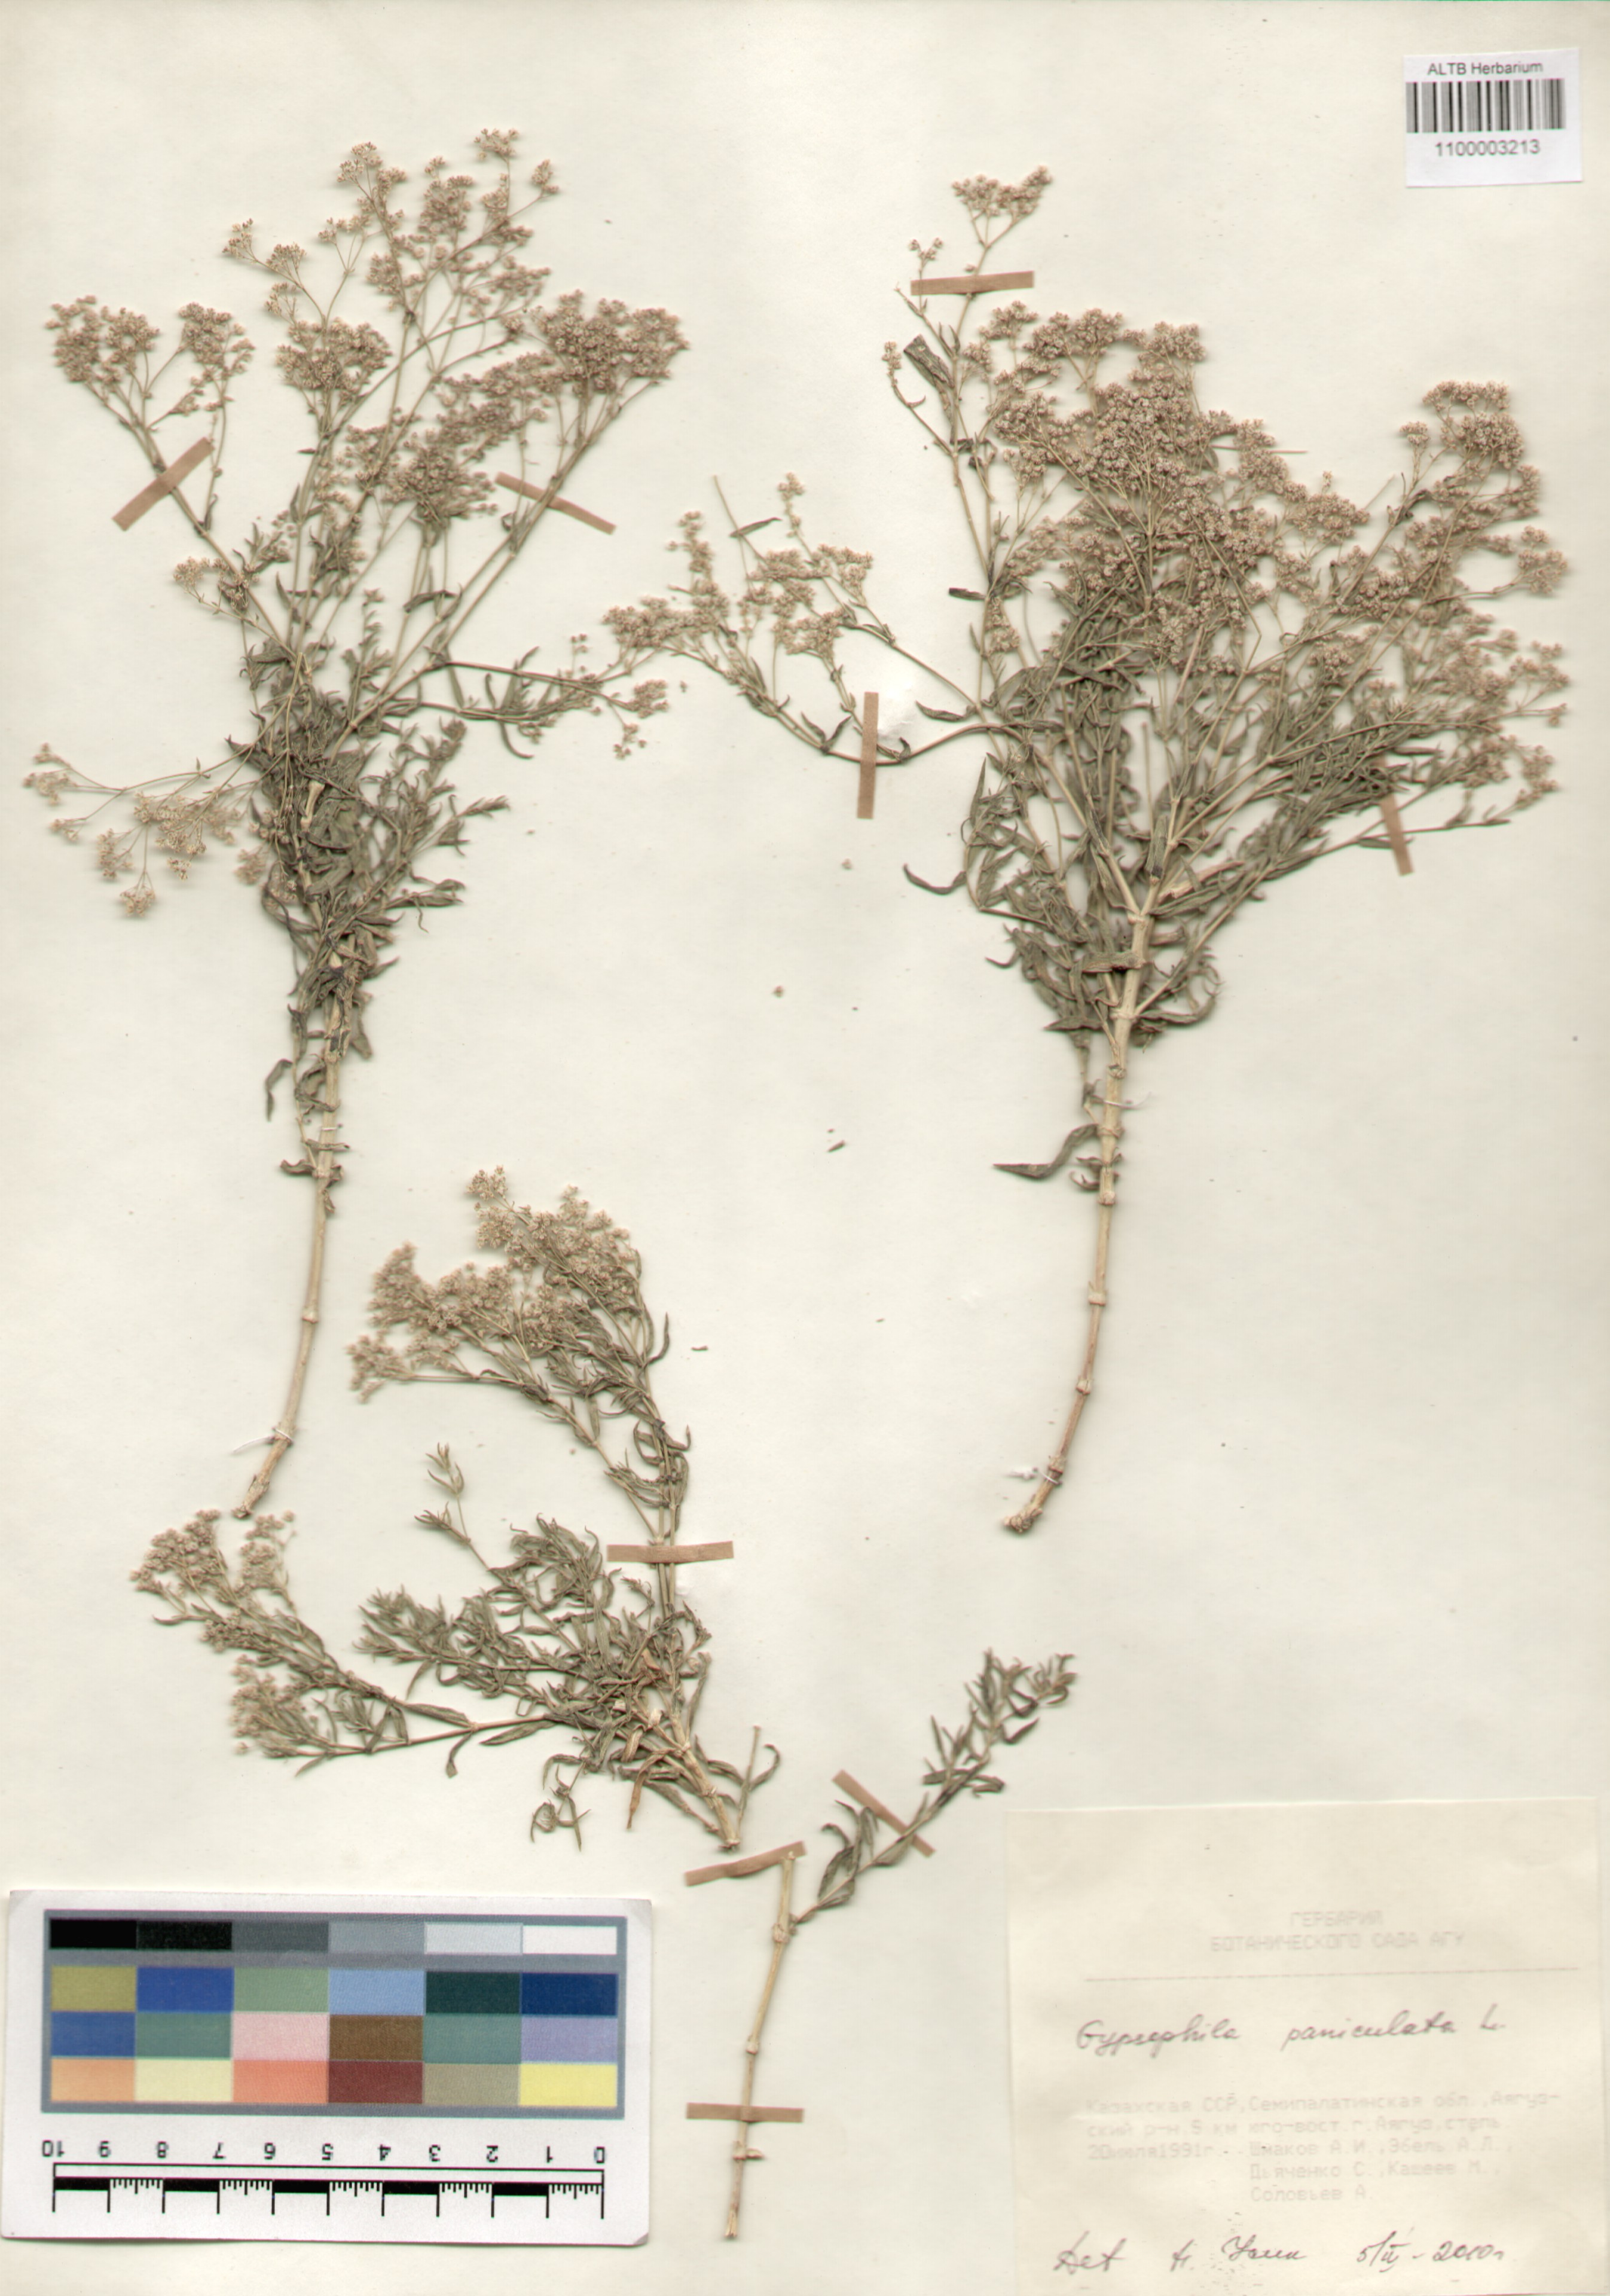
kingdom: Plantae
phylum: Tracheophyta
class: Magnoliopsida
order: Caryophyllales
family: Caryophyllaceae
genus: Gypsophila
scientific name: Gypsophila paniculata
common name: Baby's-breath
